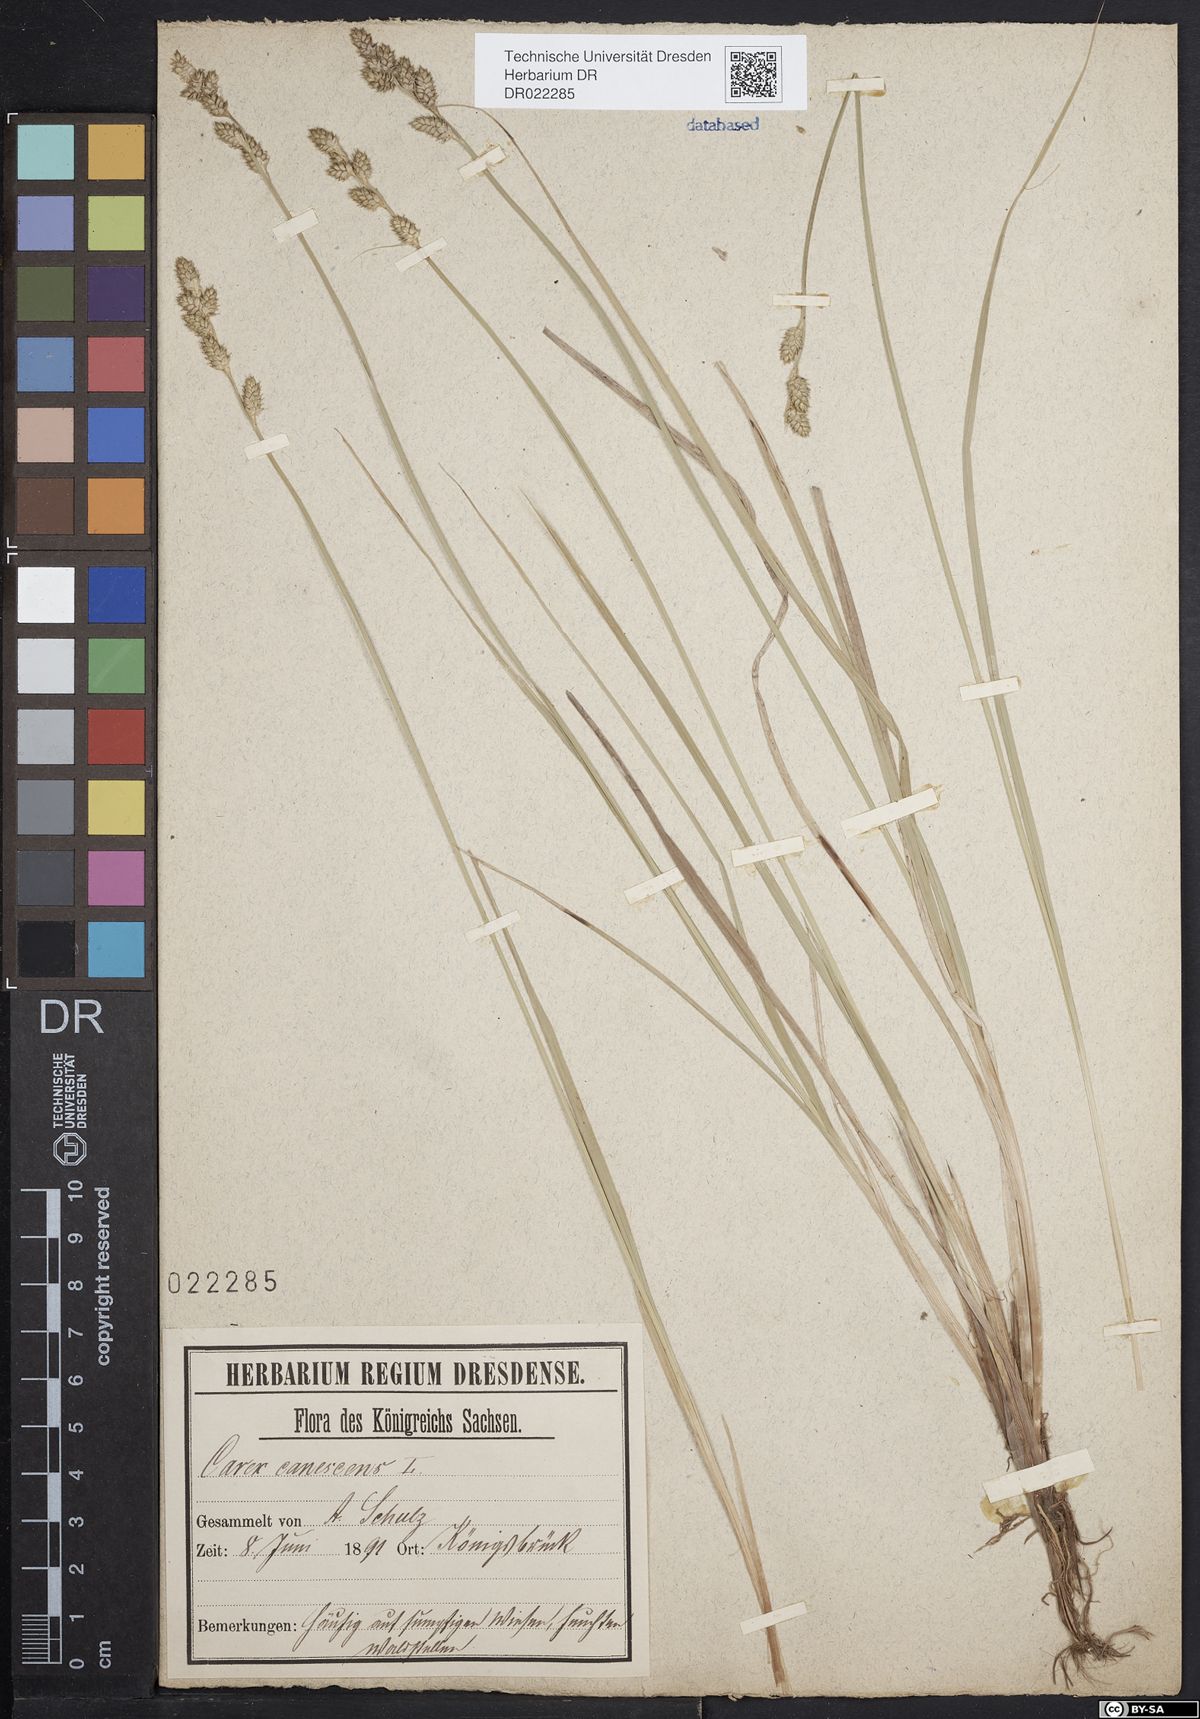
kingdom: Plantae
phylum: Tracheophyta
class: Liliopsida
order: Poales
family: Cyperaceae
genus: Carex
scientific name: Carex canescens
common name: White sedge
